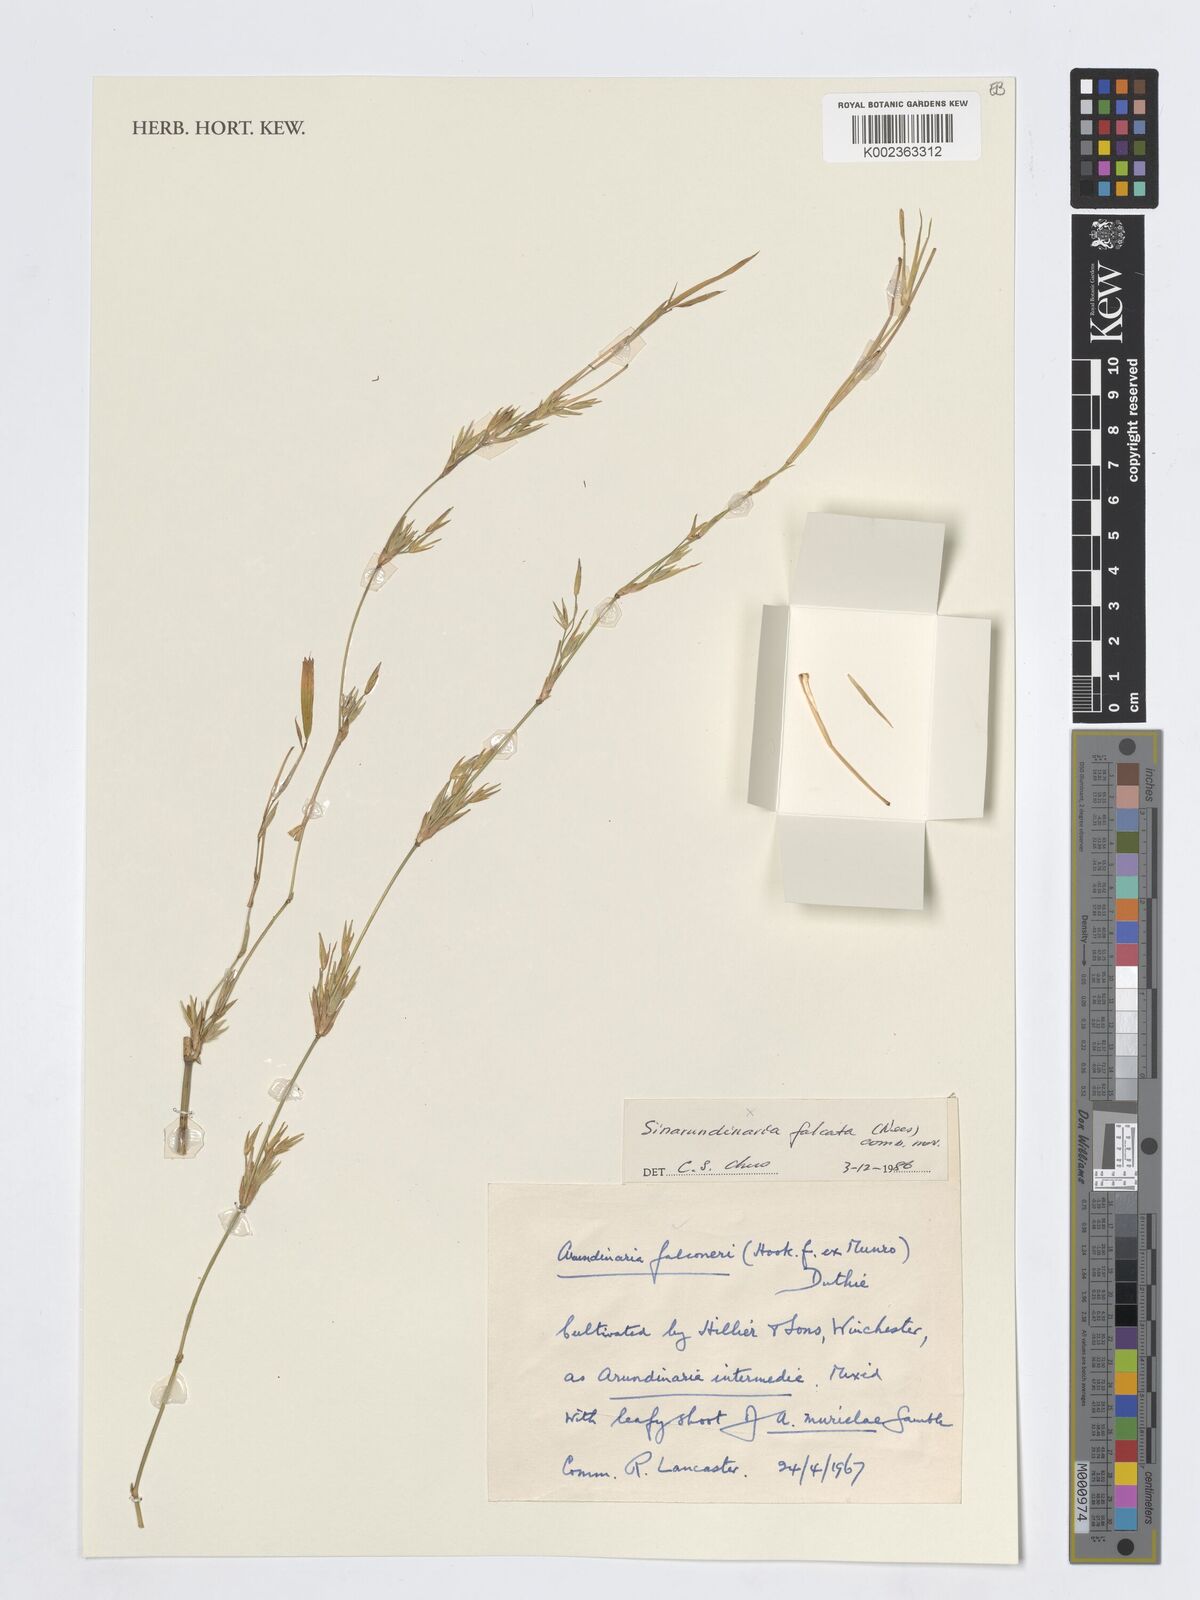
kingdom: Plantae
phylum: Tracheophyta
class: Liliopsida
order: Poales
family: Poaceae
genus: Himalayacalamus
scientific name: Himalayacalamus falconeri
